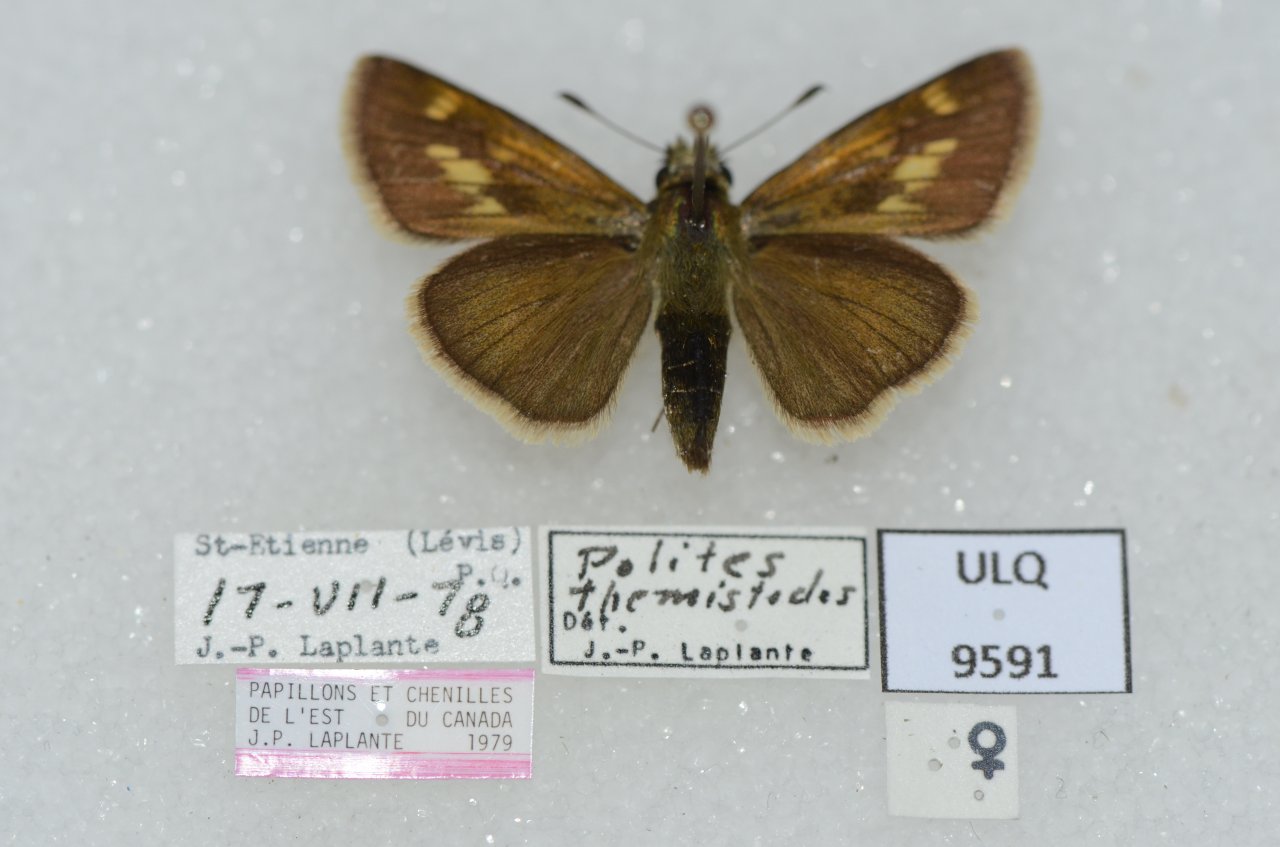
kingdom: Animalia
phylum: Arthropoda
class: Insecta
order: Lepidoptera
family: Hesperiidae
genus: Polites
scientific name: Polites themistocles
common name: Tawny-edged Skipper
